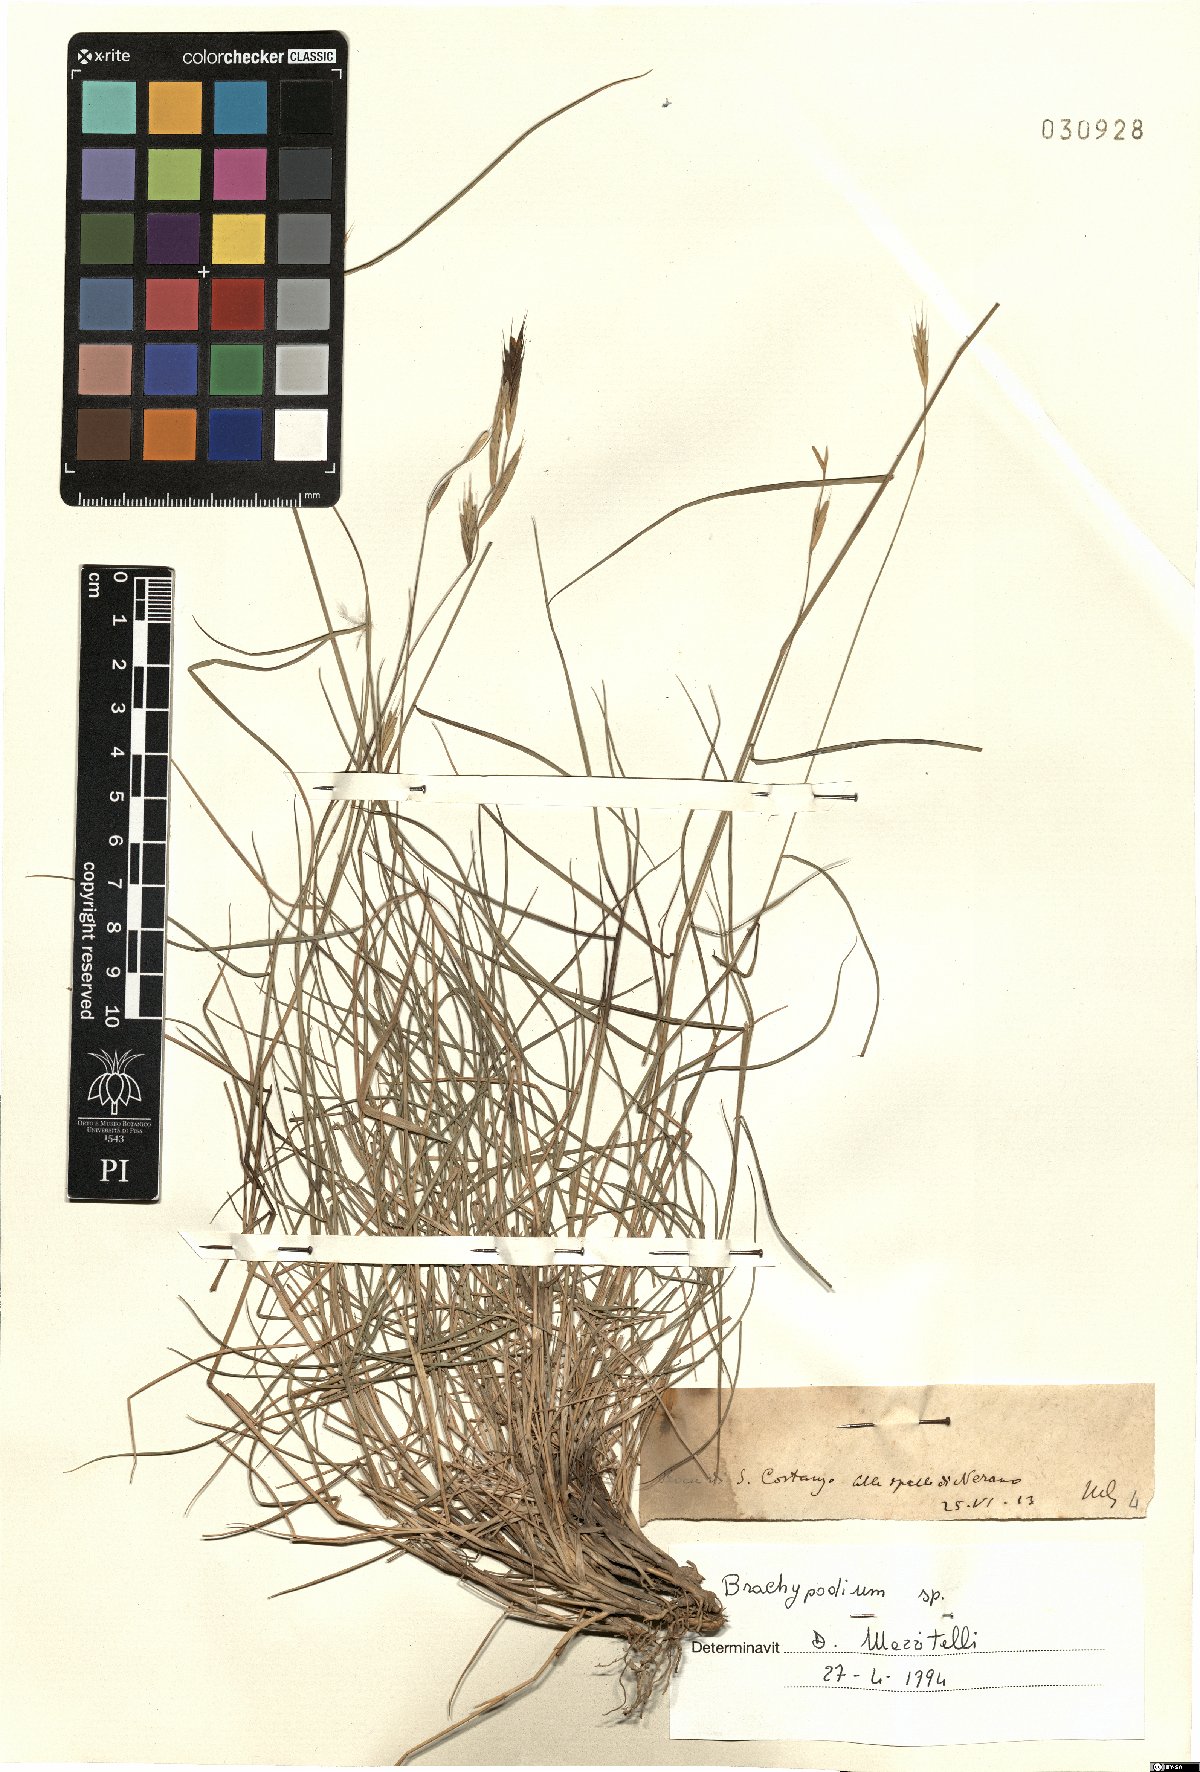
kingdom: Plantae
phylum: Tracheophyta
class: Liliopsida
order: Poales
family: Poaceae
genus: Brachypodium
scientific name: Brachypodium
